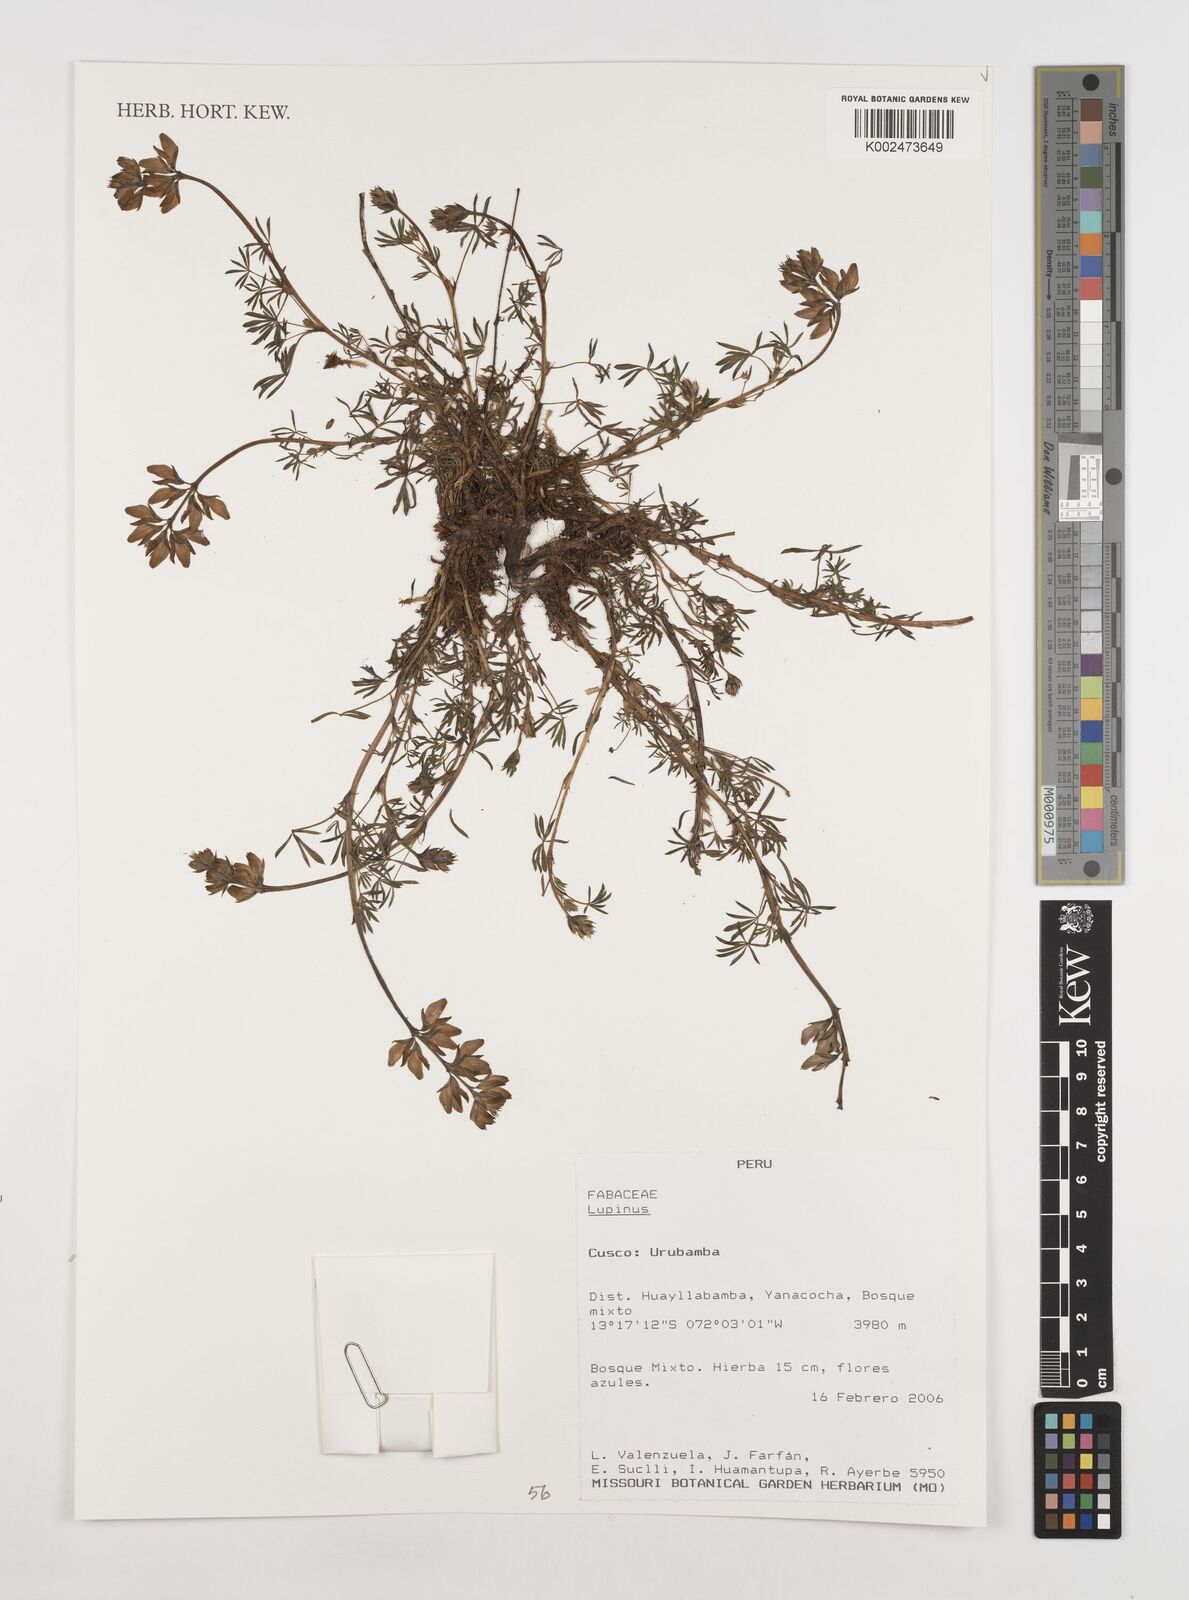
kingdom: Plantae
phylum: Tracheophyta
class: Magnoliopsida
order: Fabales
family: Fabaceae
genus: Lupinus
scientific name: Lupinus
